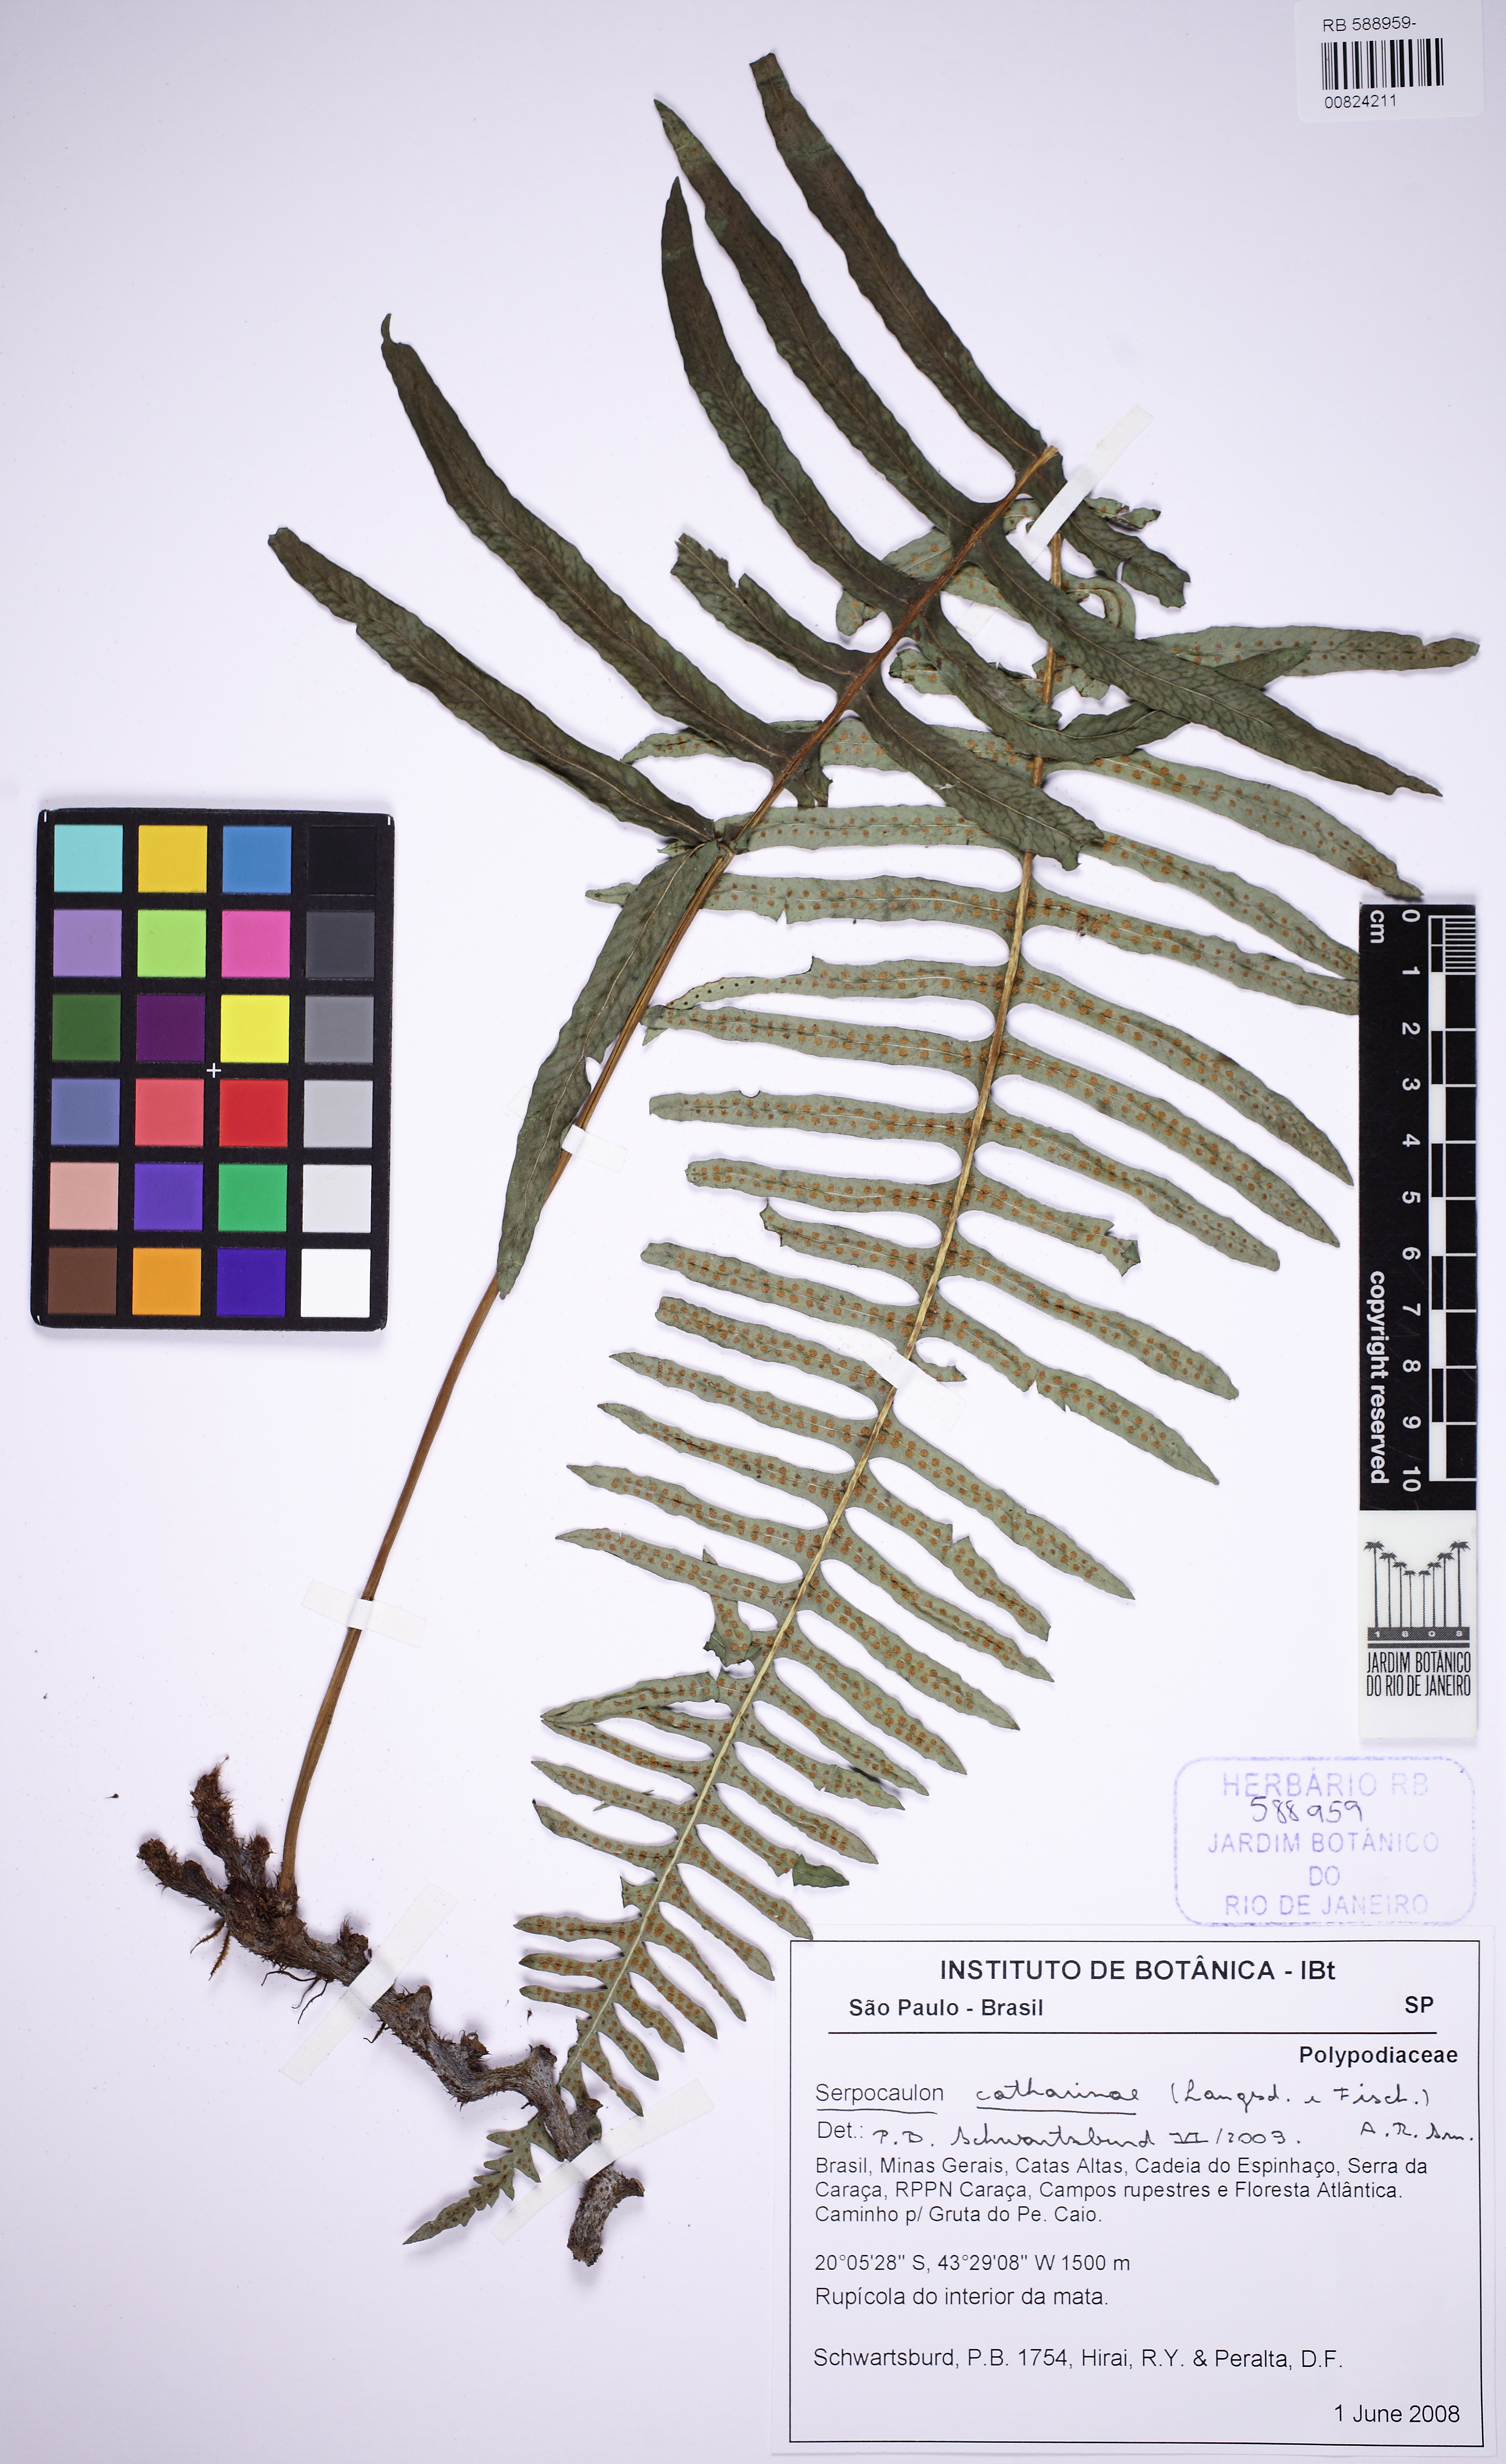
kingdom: Plantae
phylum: Tracheophyta
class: Polypodiopsida
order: Polypodiales
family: Polypodiaceae
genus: Serpocaulon
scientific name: Serpocaulon catharinae
